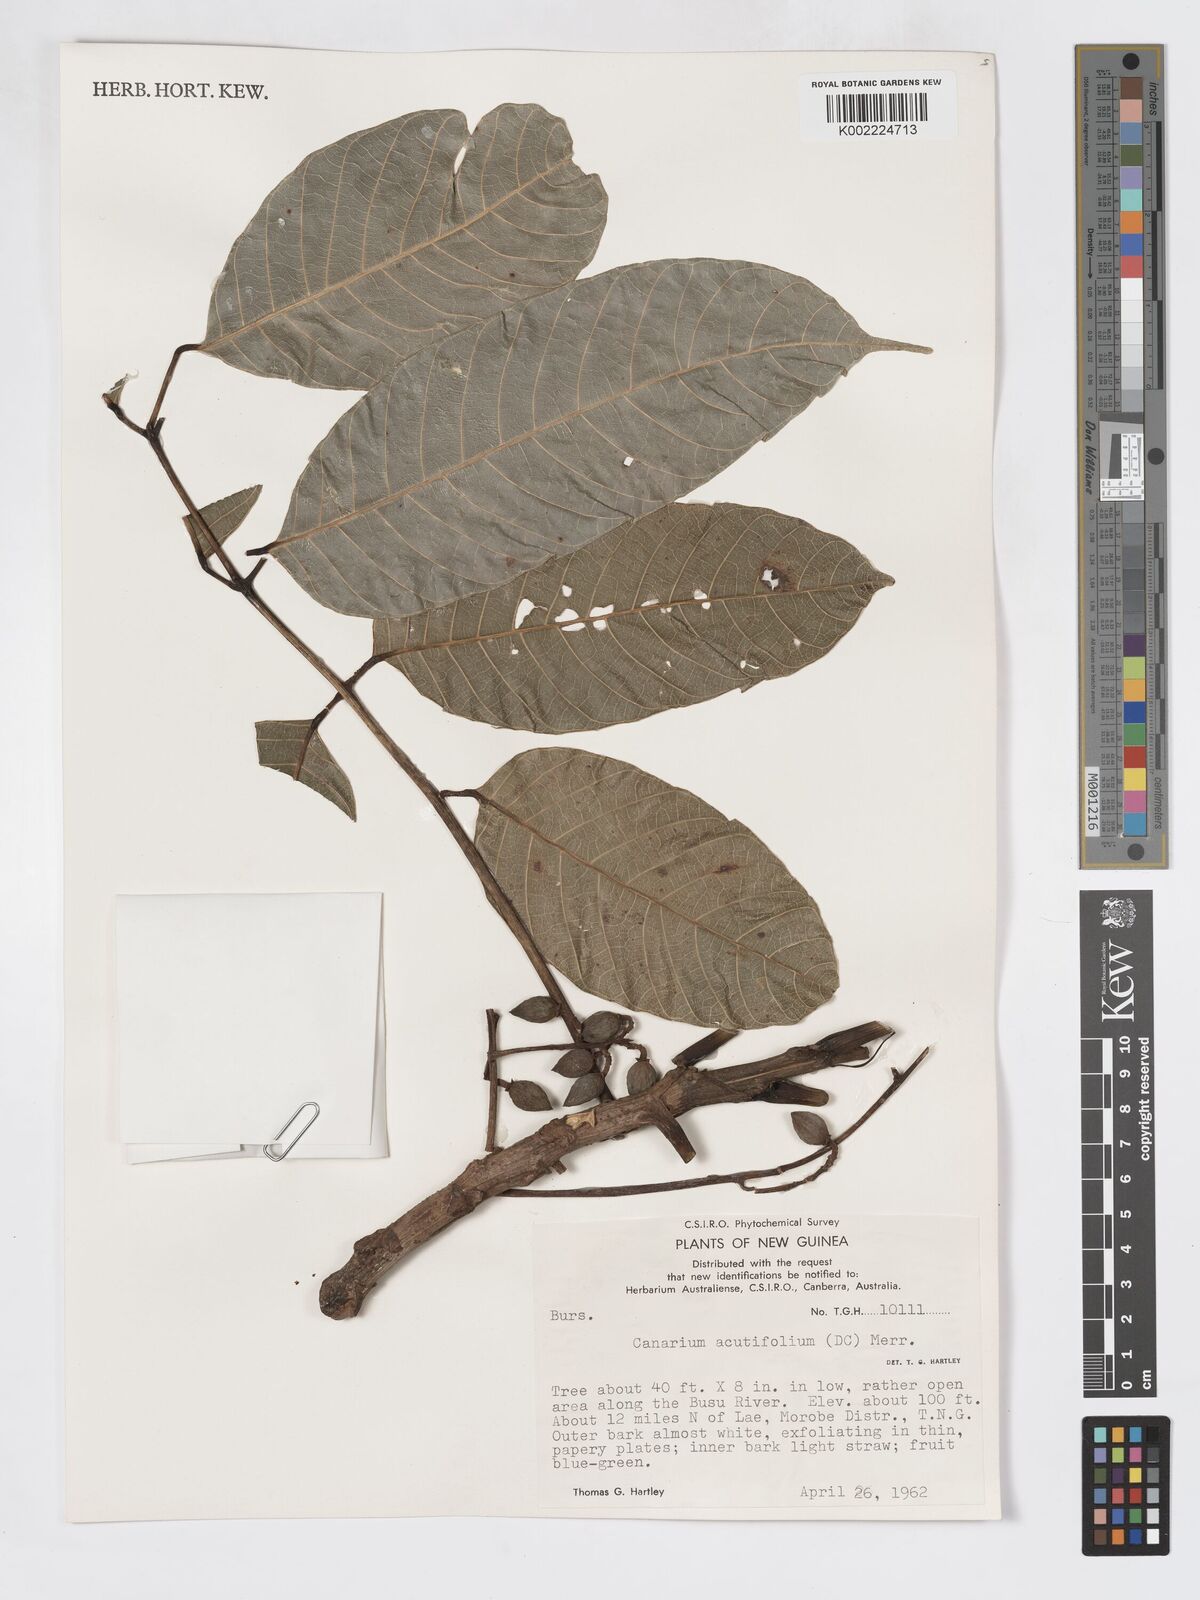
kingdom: Plantae
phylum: Tracheophyta
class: Magnoliopsida
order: Sapindales
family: Burseraceae
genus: Canarium
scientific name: Canarium acutifolium
